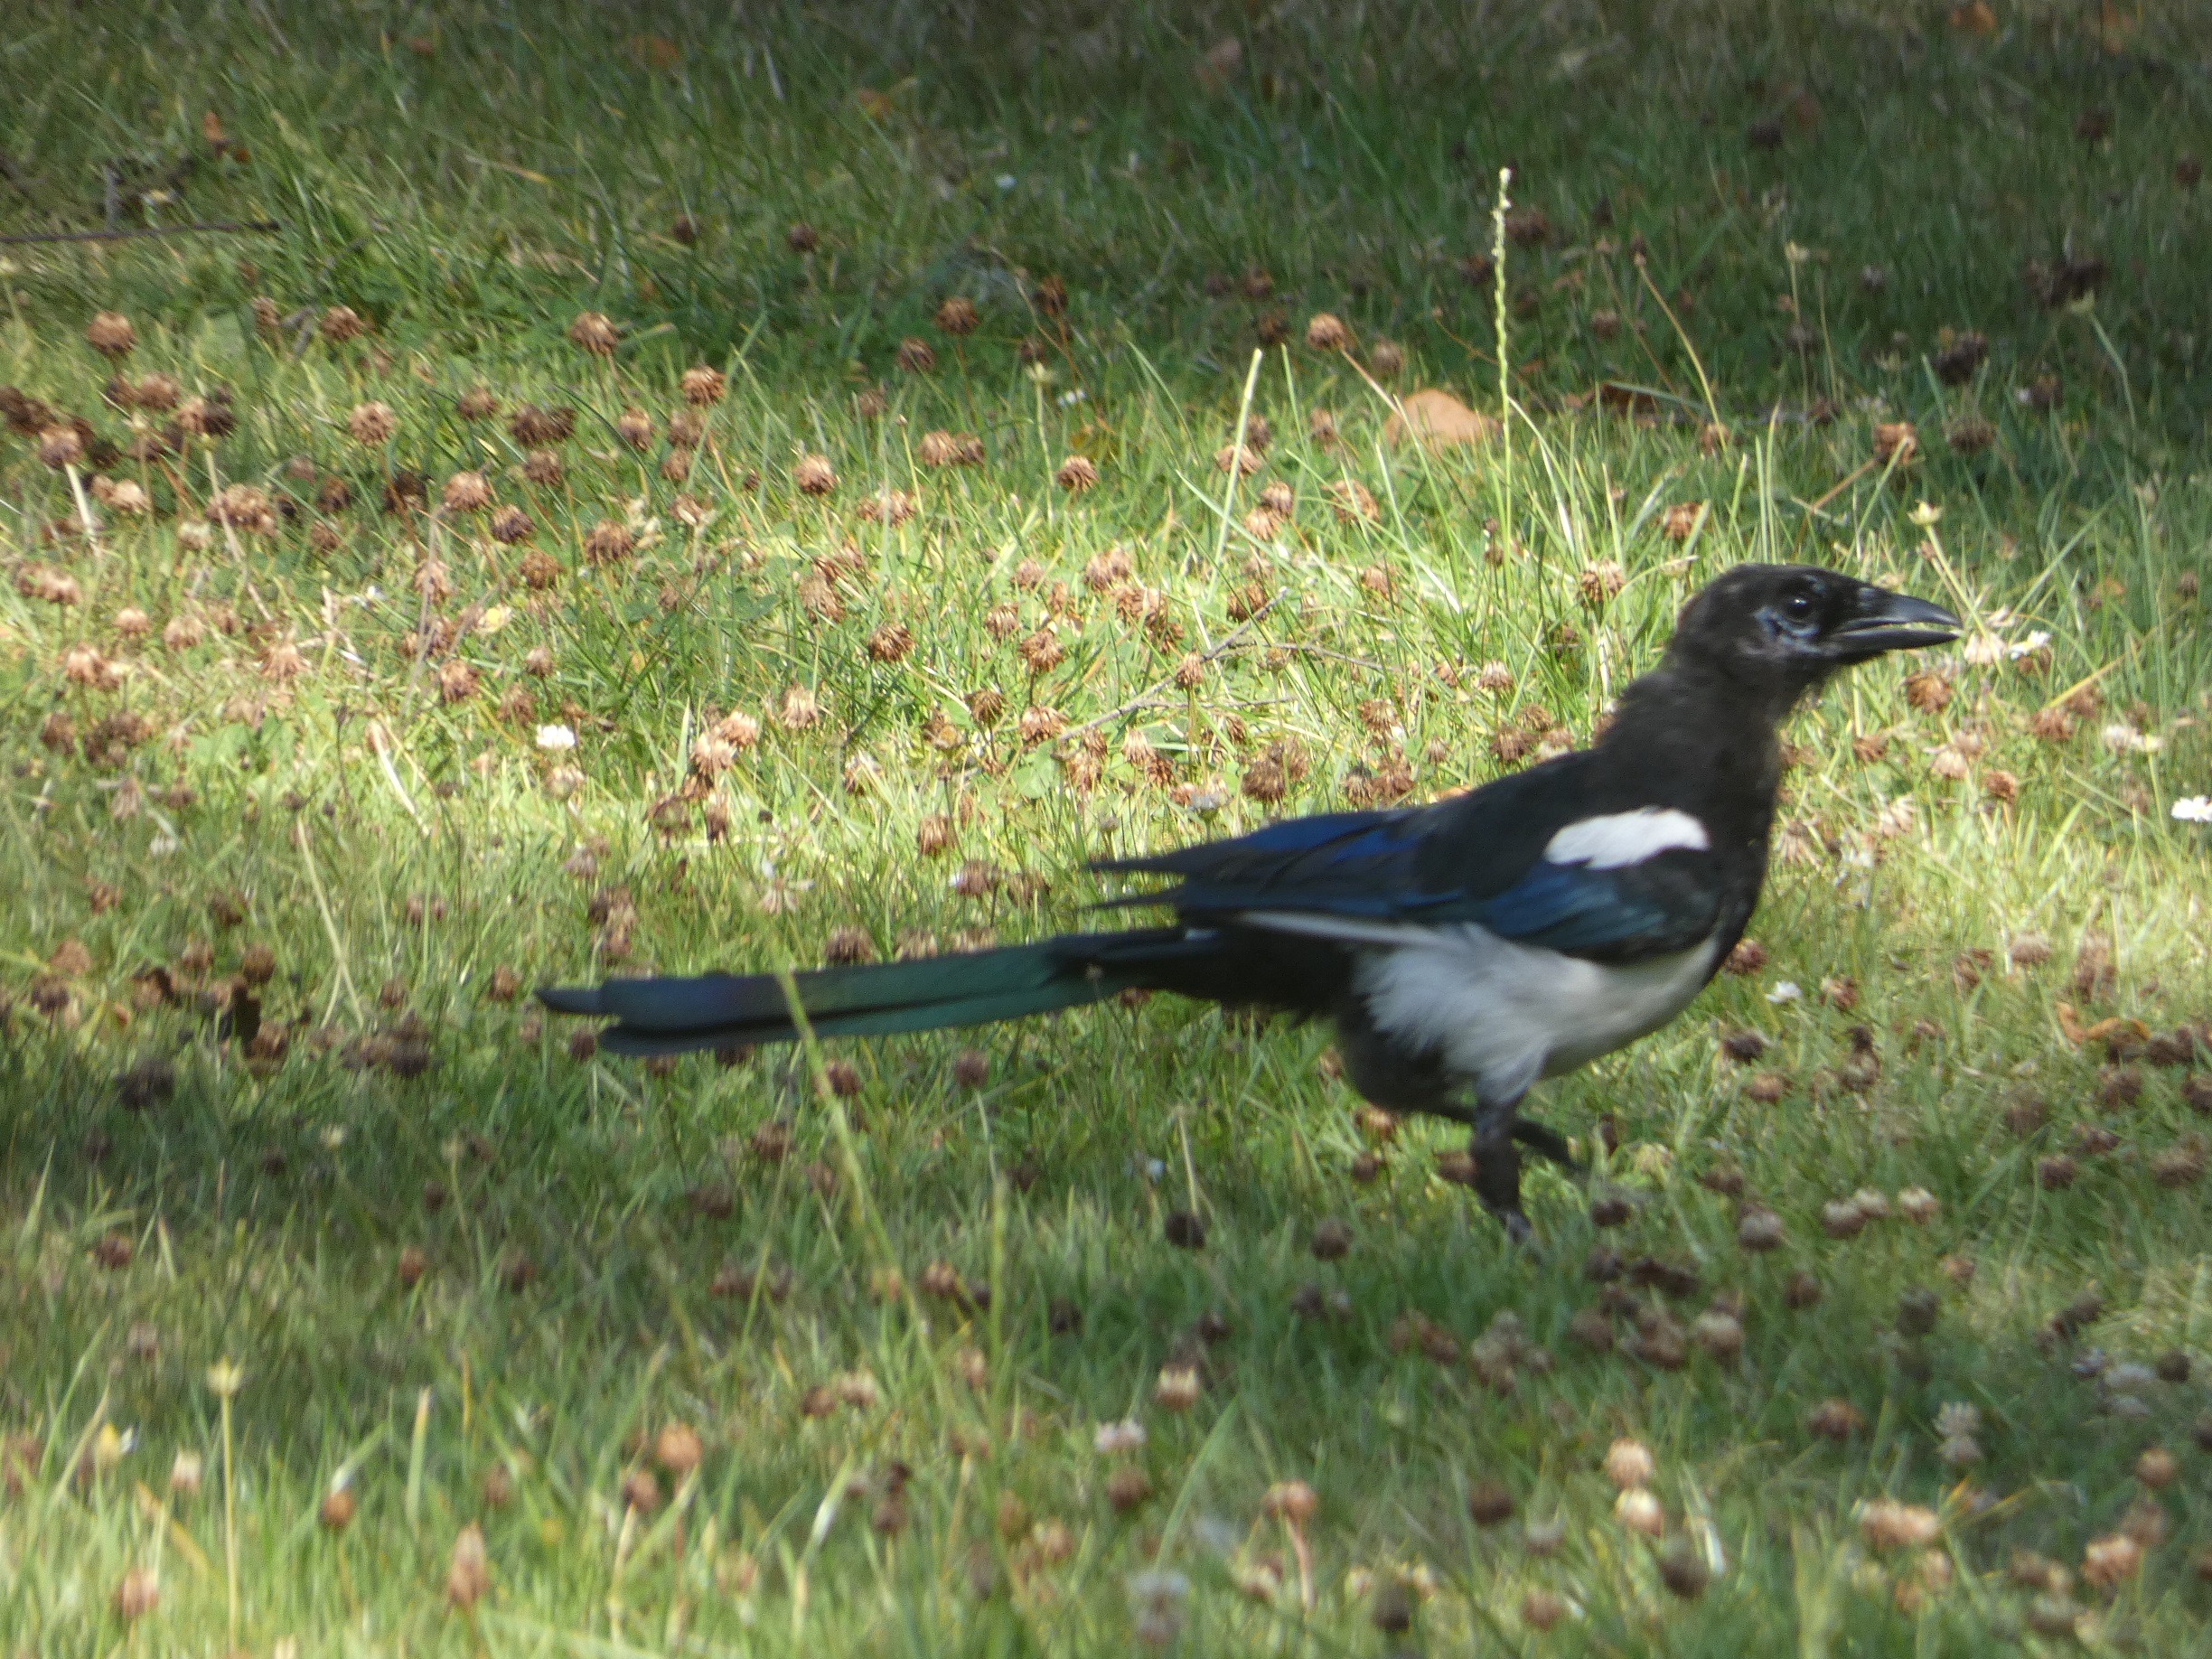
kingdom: Animalia
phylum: Chordata
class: Aves
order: Passeriformes
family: Corvidae
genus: Pica
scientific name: Pica pica
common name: Husskade
